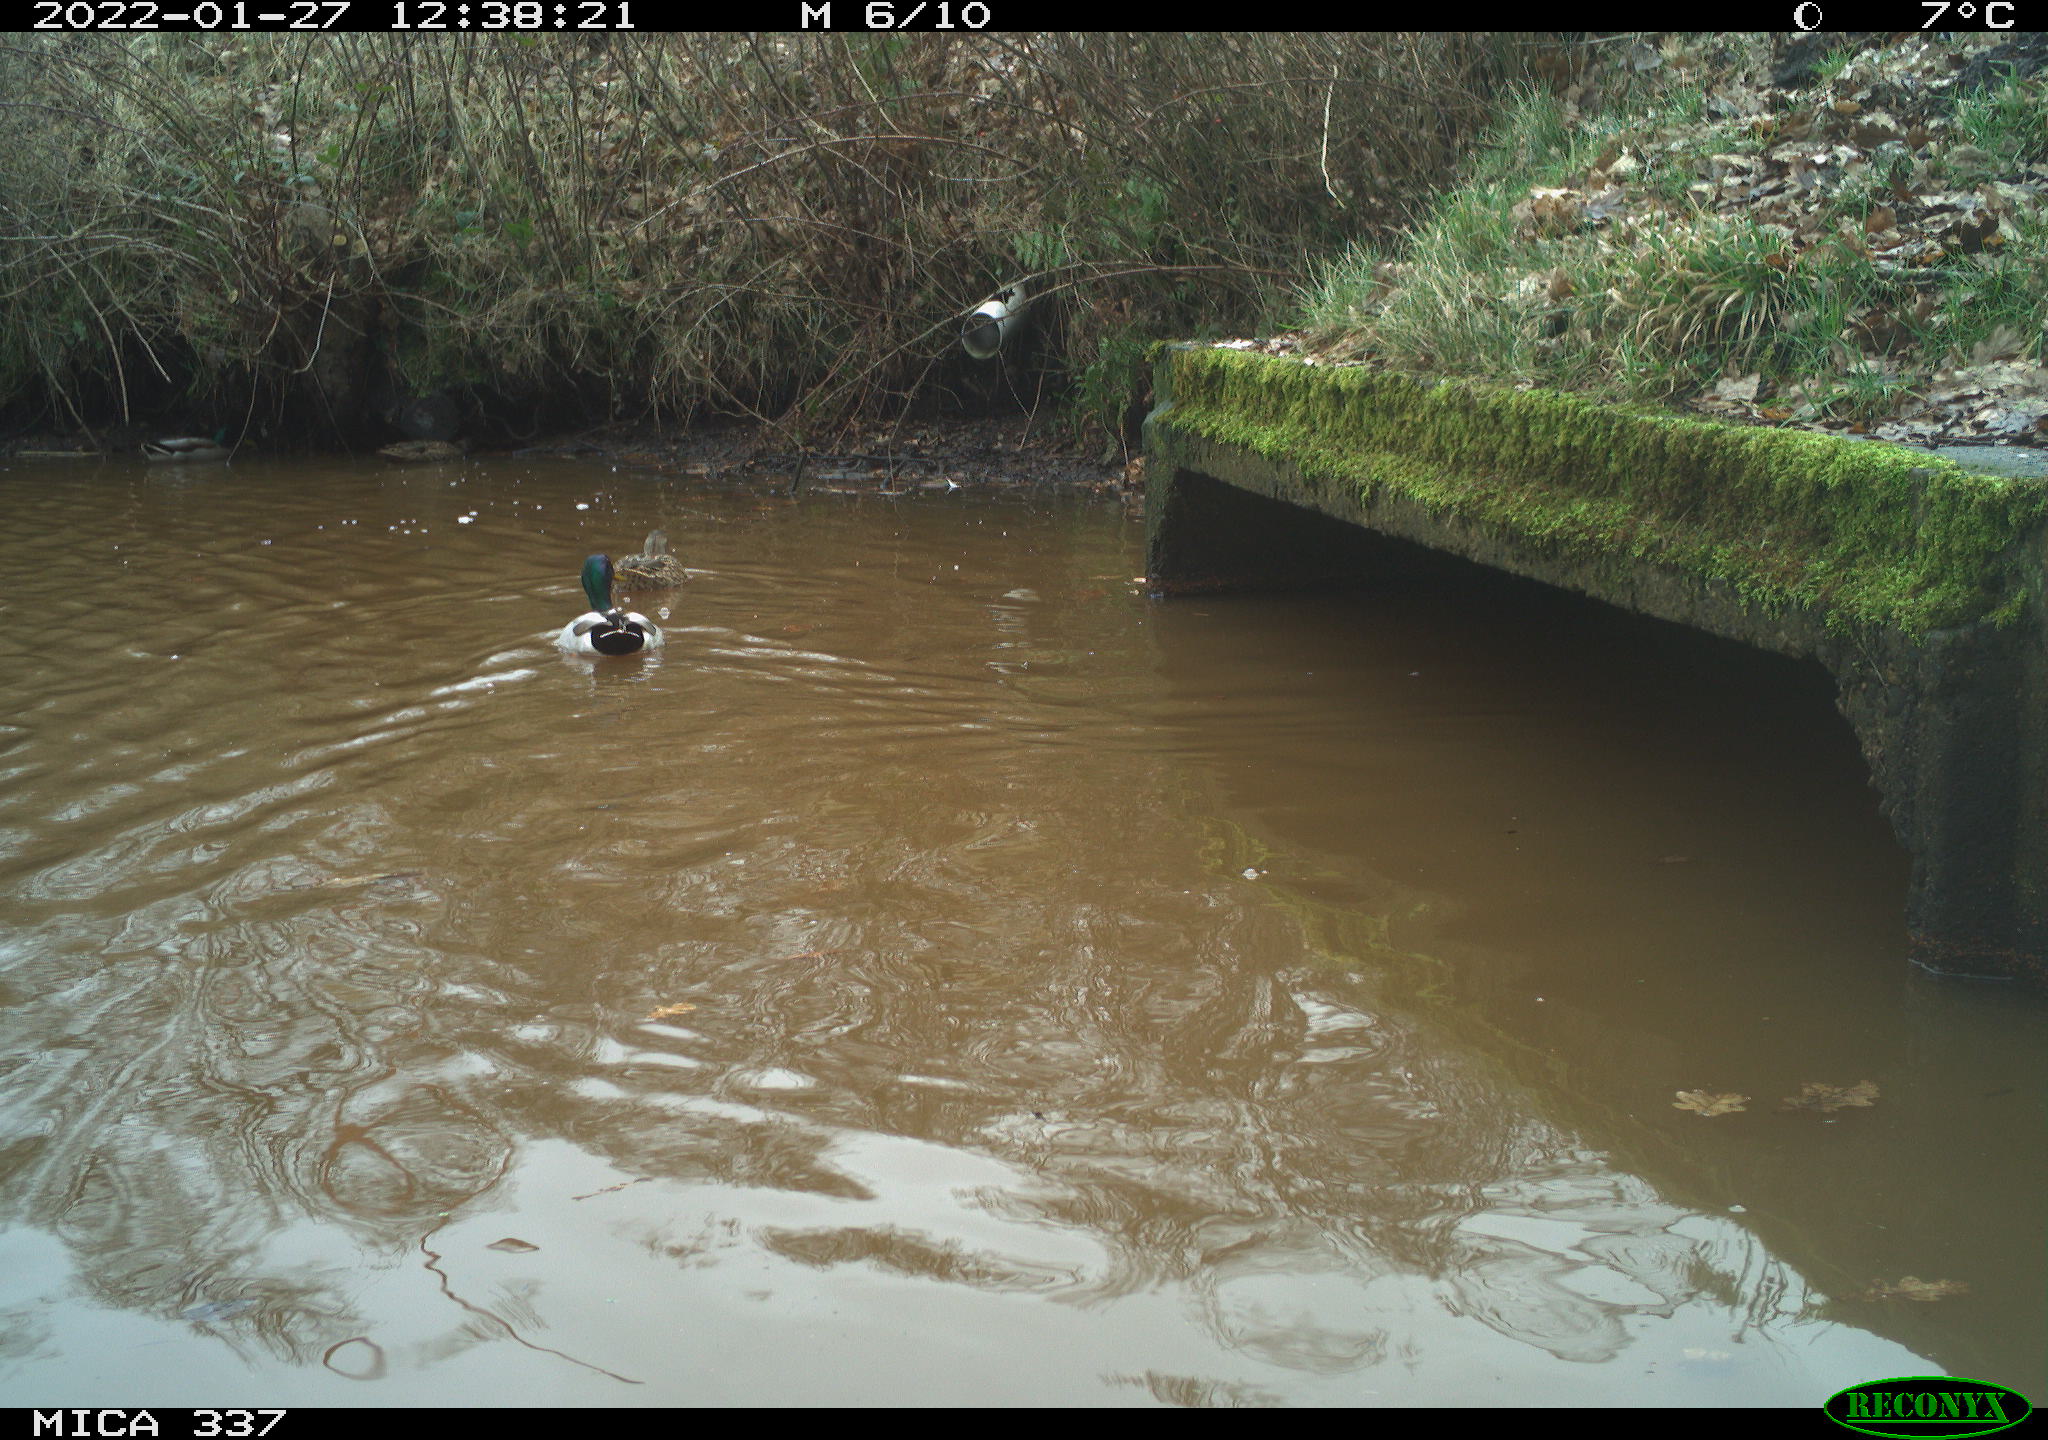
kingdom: Animalia
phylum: Chordata
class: Aves
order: Anseriformes
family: Anatidae
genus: Anas
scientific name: Anas platyrhynchos
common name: Mallard
